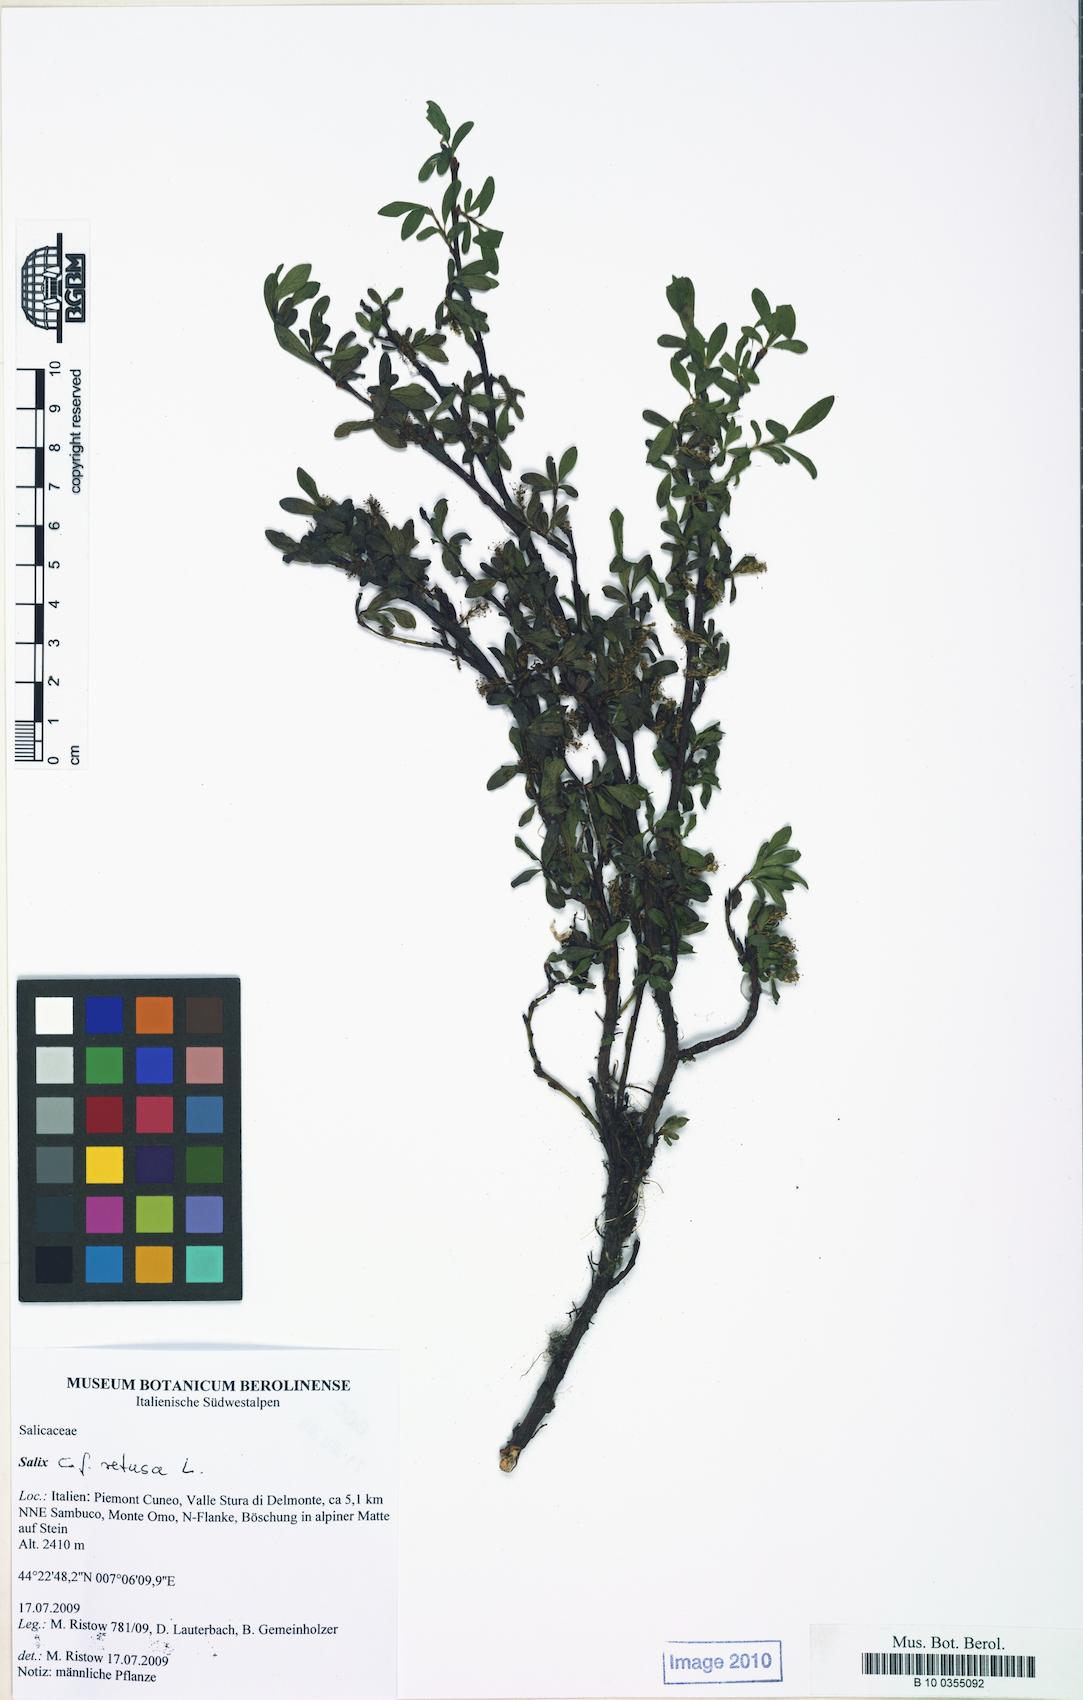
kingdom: Plantae
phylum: Tracheophyta
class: Magnoliopsida
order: Malpighiales
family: Salicaceae
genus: Salix
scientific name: Salix retusa
